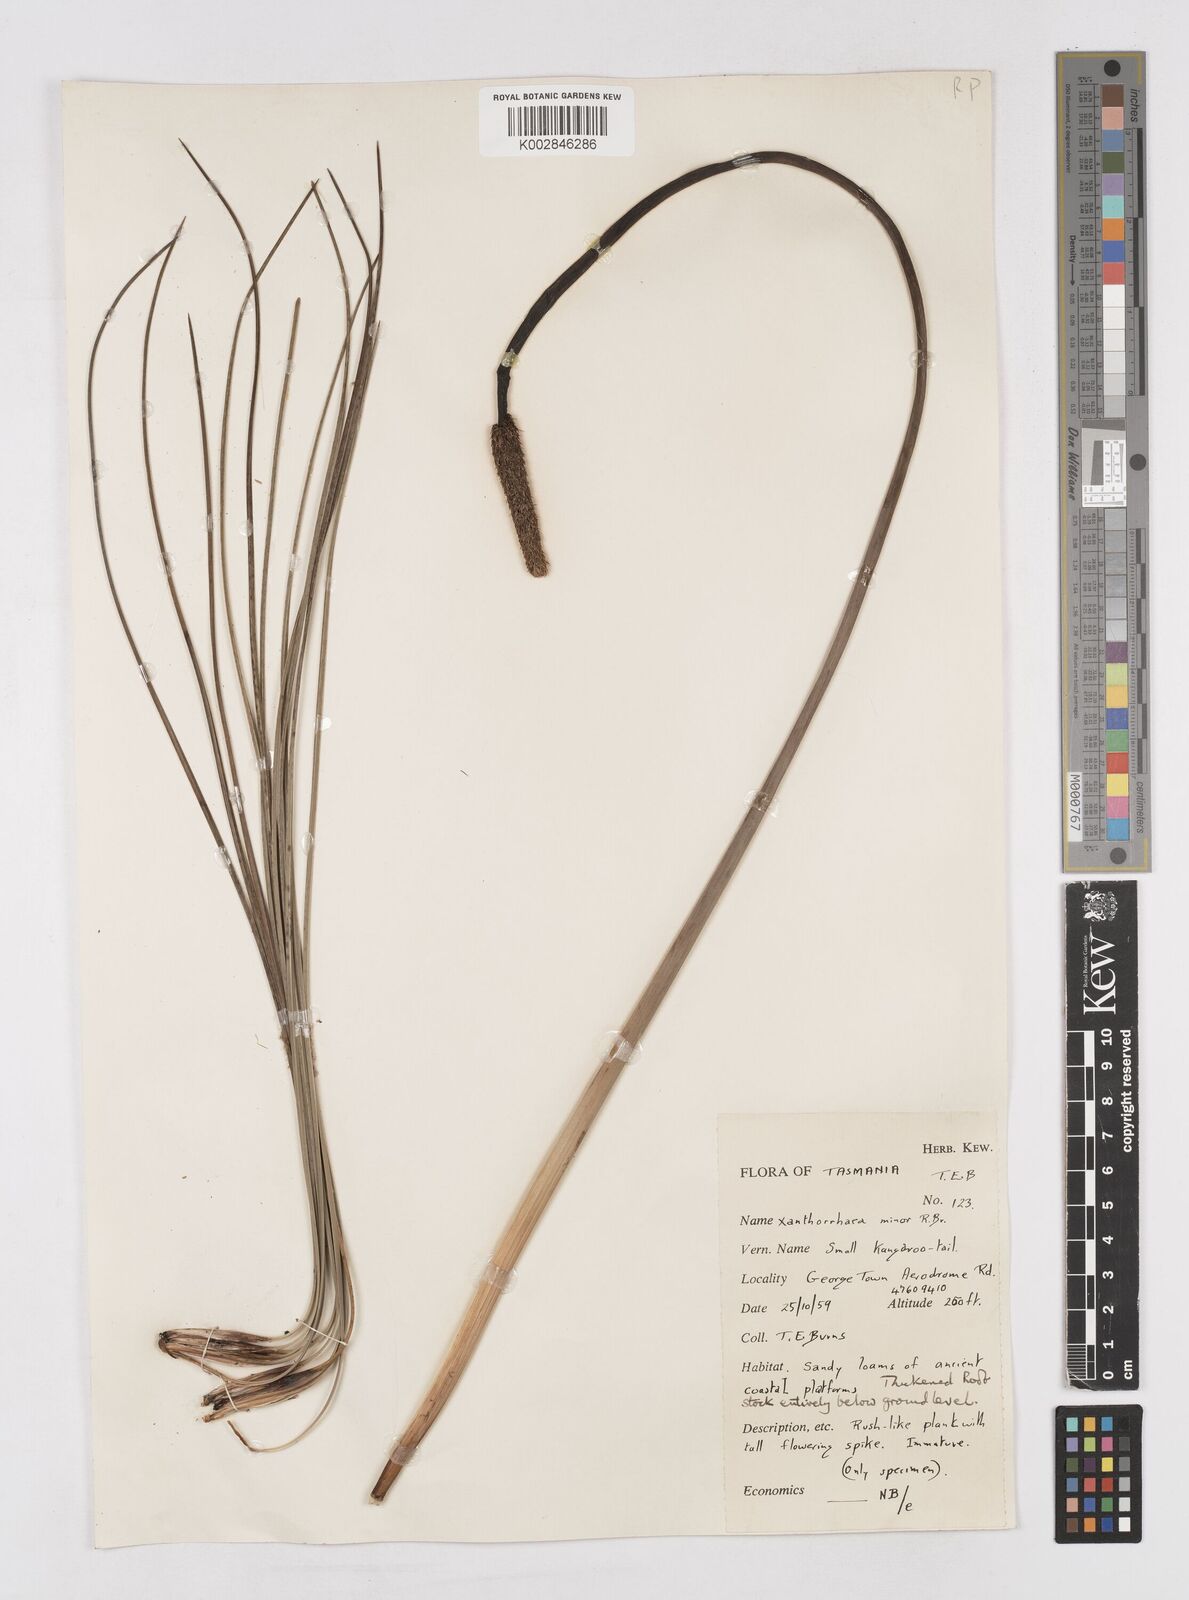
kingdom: Plantae
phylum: Tracheophyta
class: Liliopsida
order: Asparagales
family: Asphodelaceae
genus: Xanthorrhoea
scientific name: Xanthorrhoea minor
